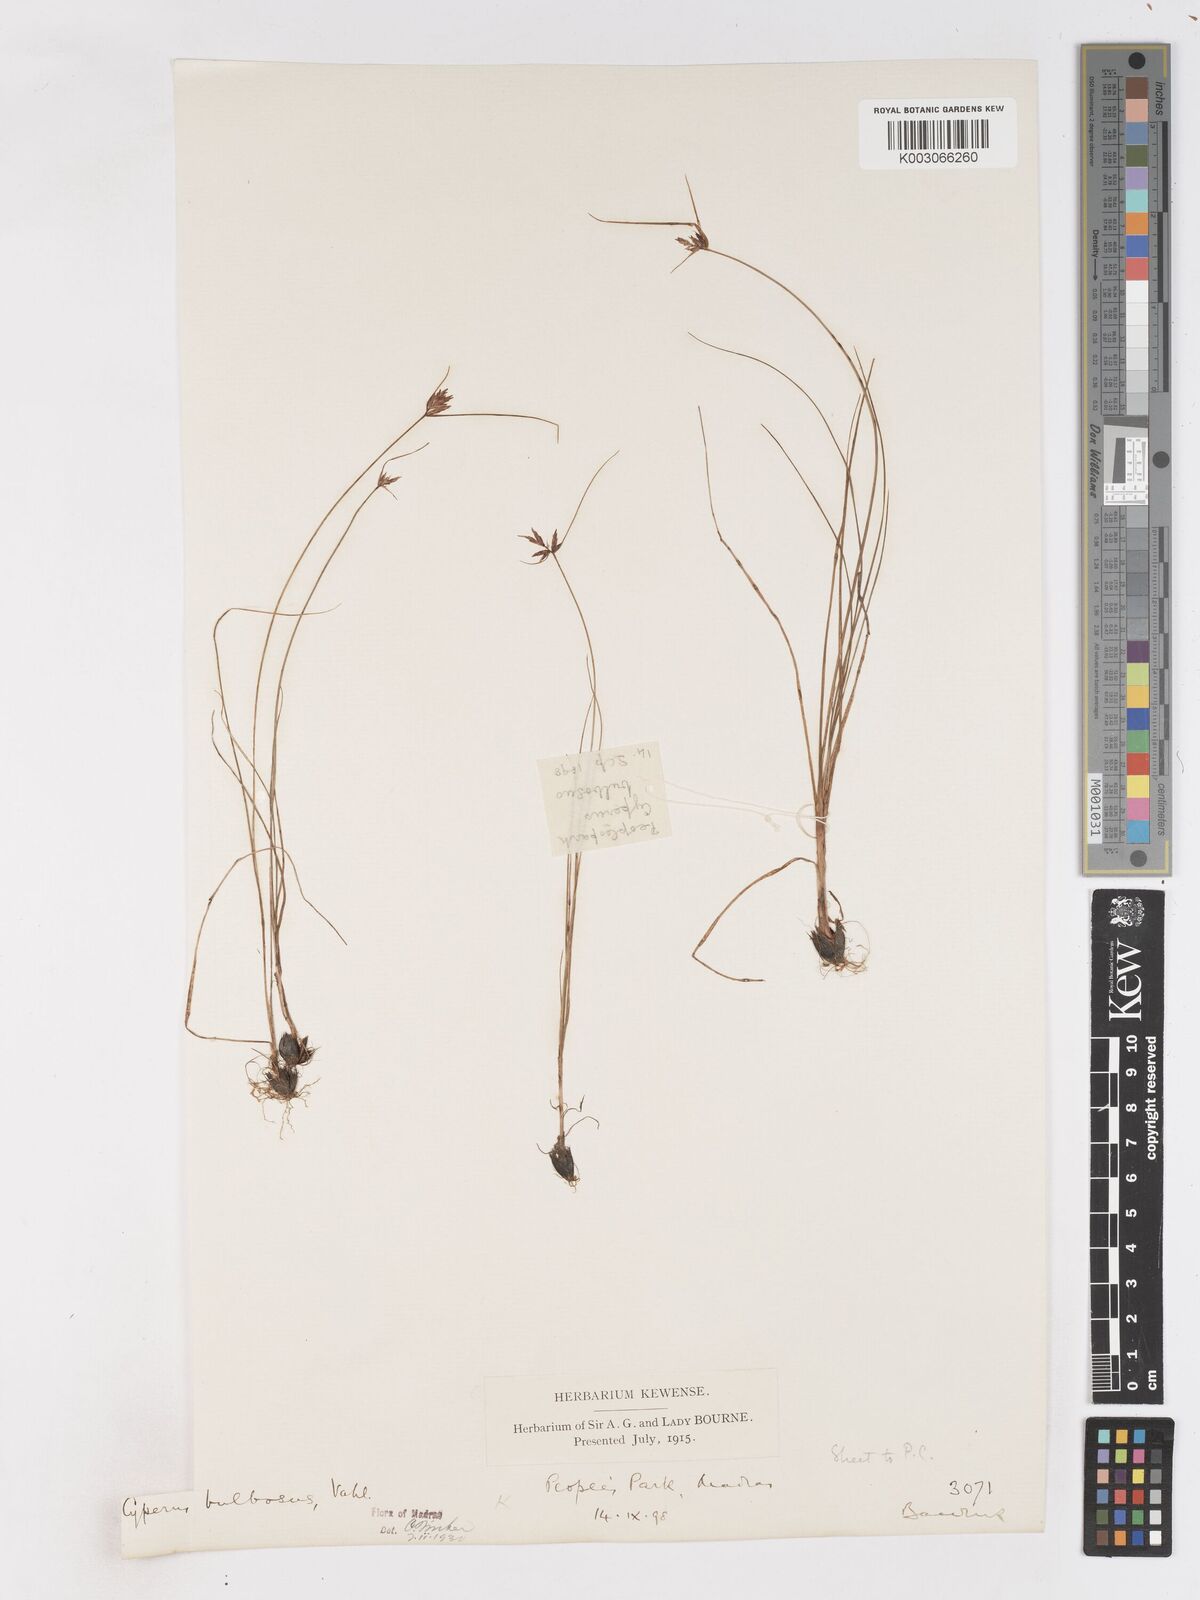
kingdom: Plantae
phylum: Tracheophyta
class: Liliopsida
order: Poales
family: Cyperaceae
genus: Cyperus
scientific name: Cyperus bulbosus
